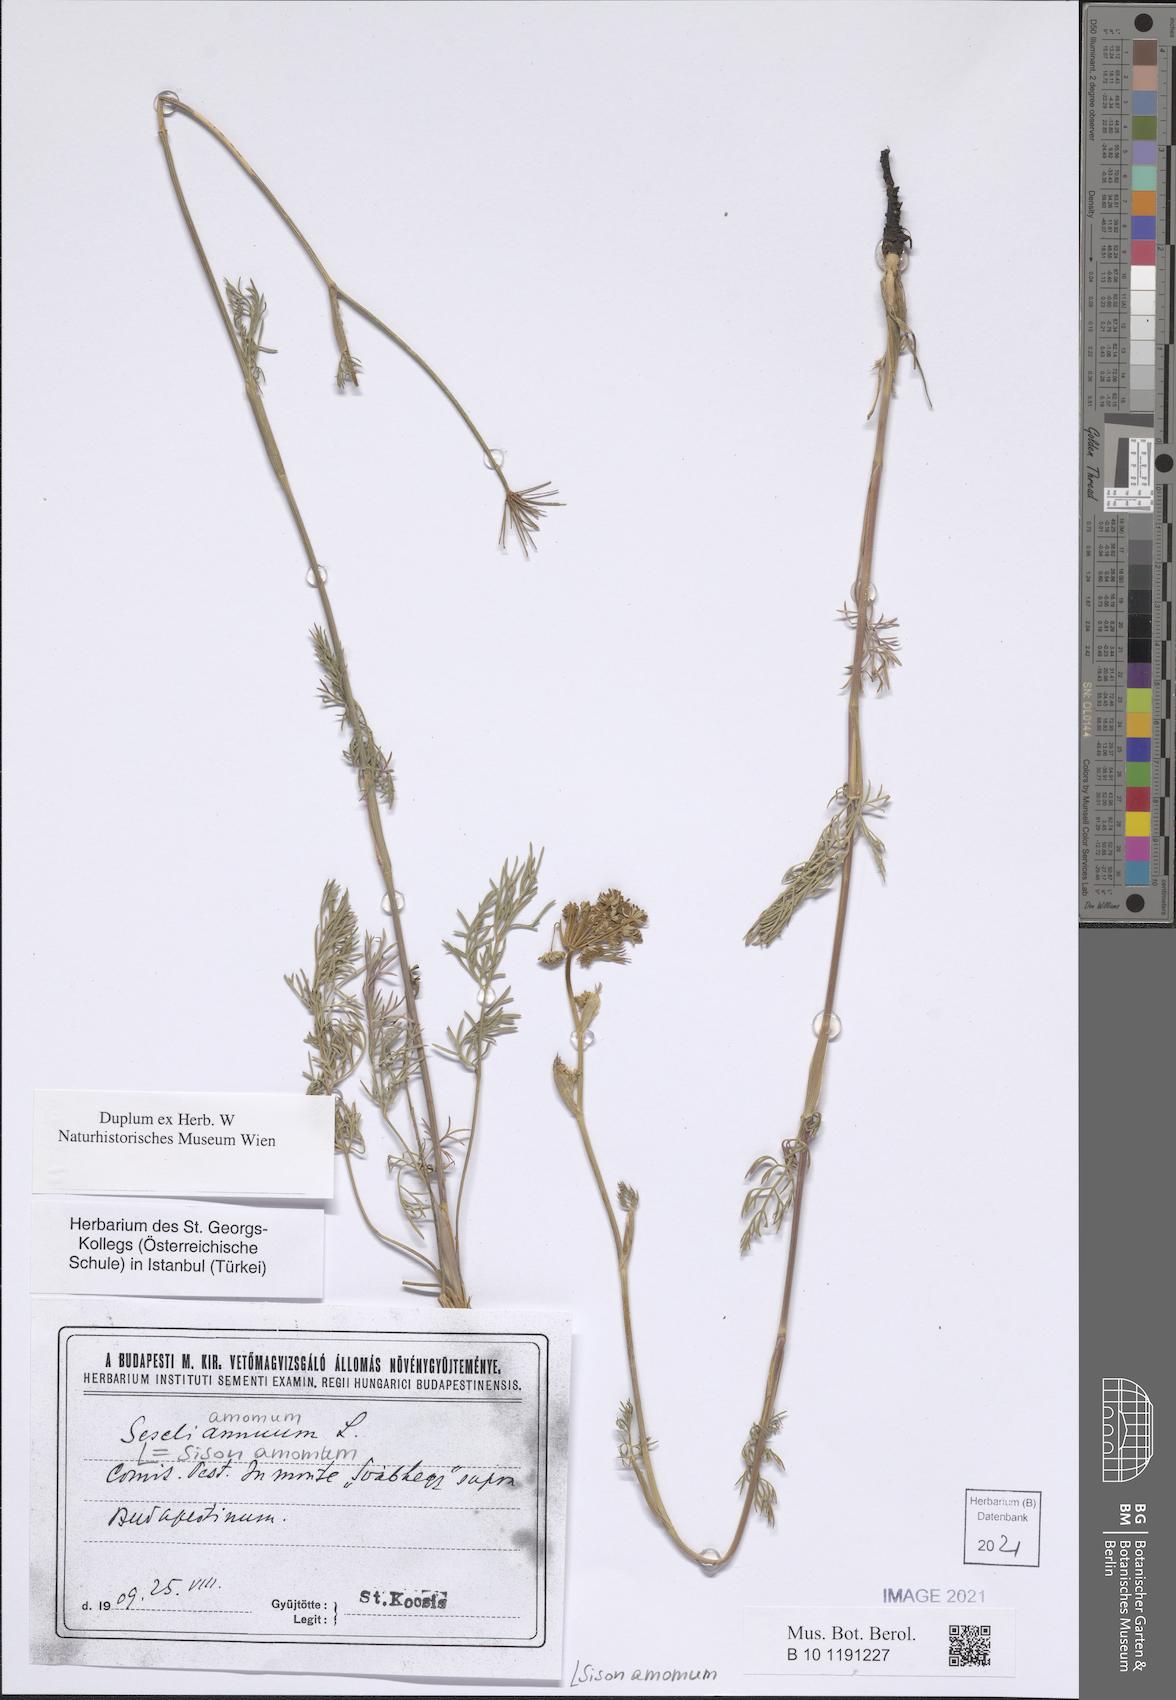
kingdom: Plantae
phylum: Tracheophyta
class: Magnoliopsida
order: Apiales
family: Apiaceae
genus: Sison
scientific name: Sison amomum
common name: Stone-parsley
